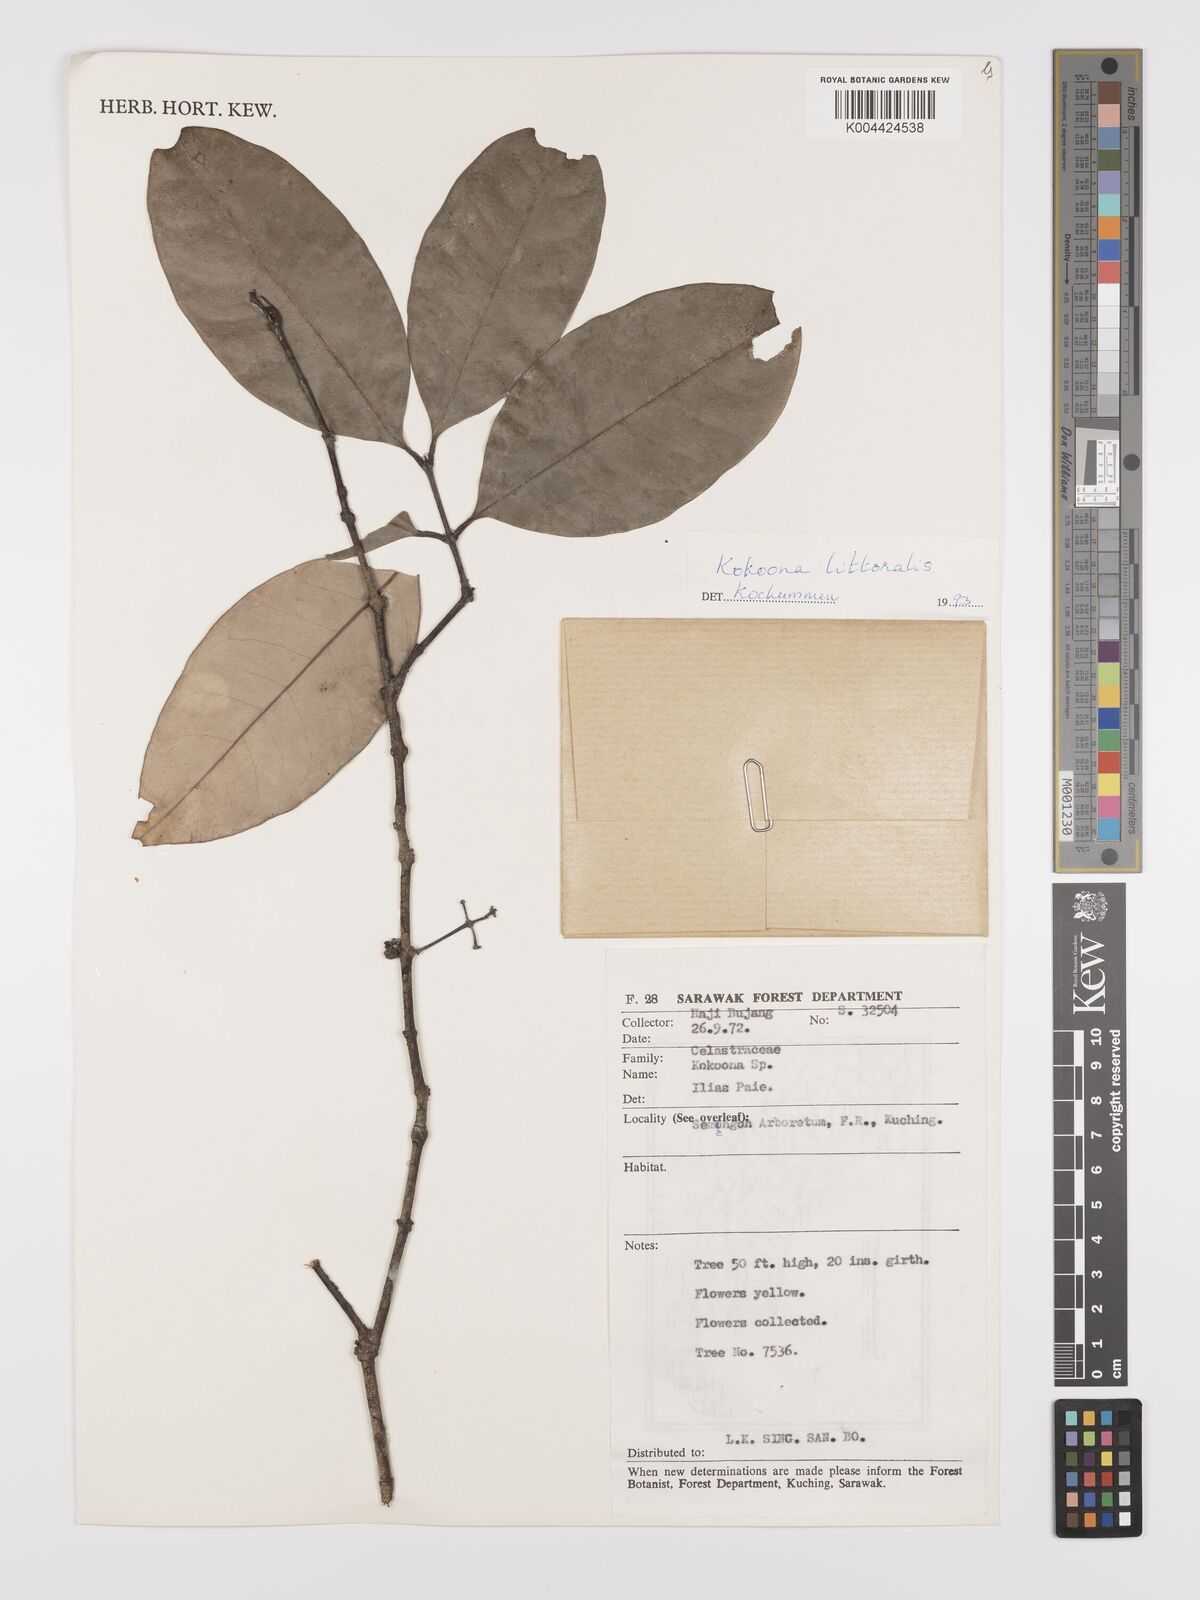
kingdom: Plantae
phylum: Tracheophyta
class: Magnoliopsida
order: Celastrales
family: Celastraceae
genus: Kokoona
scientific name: Kokoona littoralis
